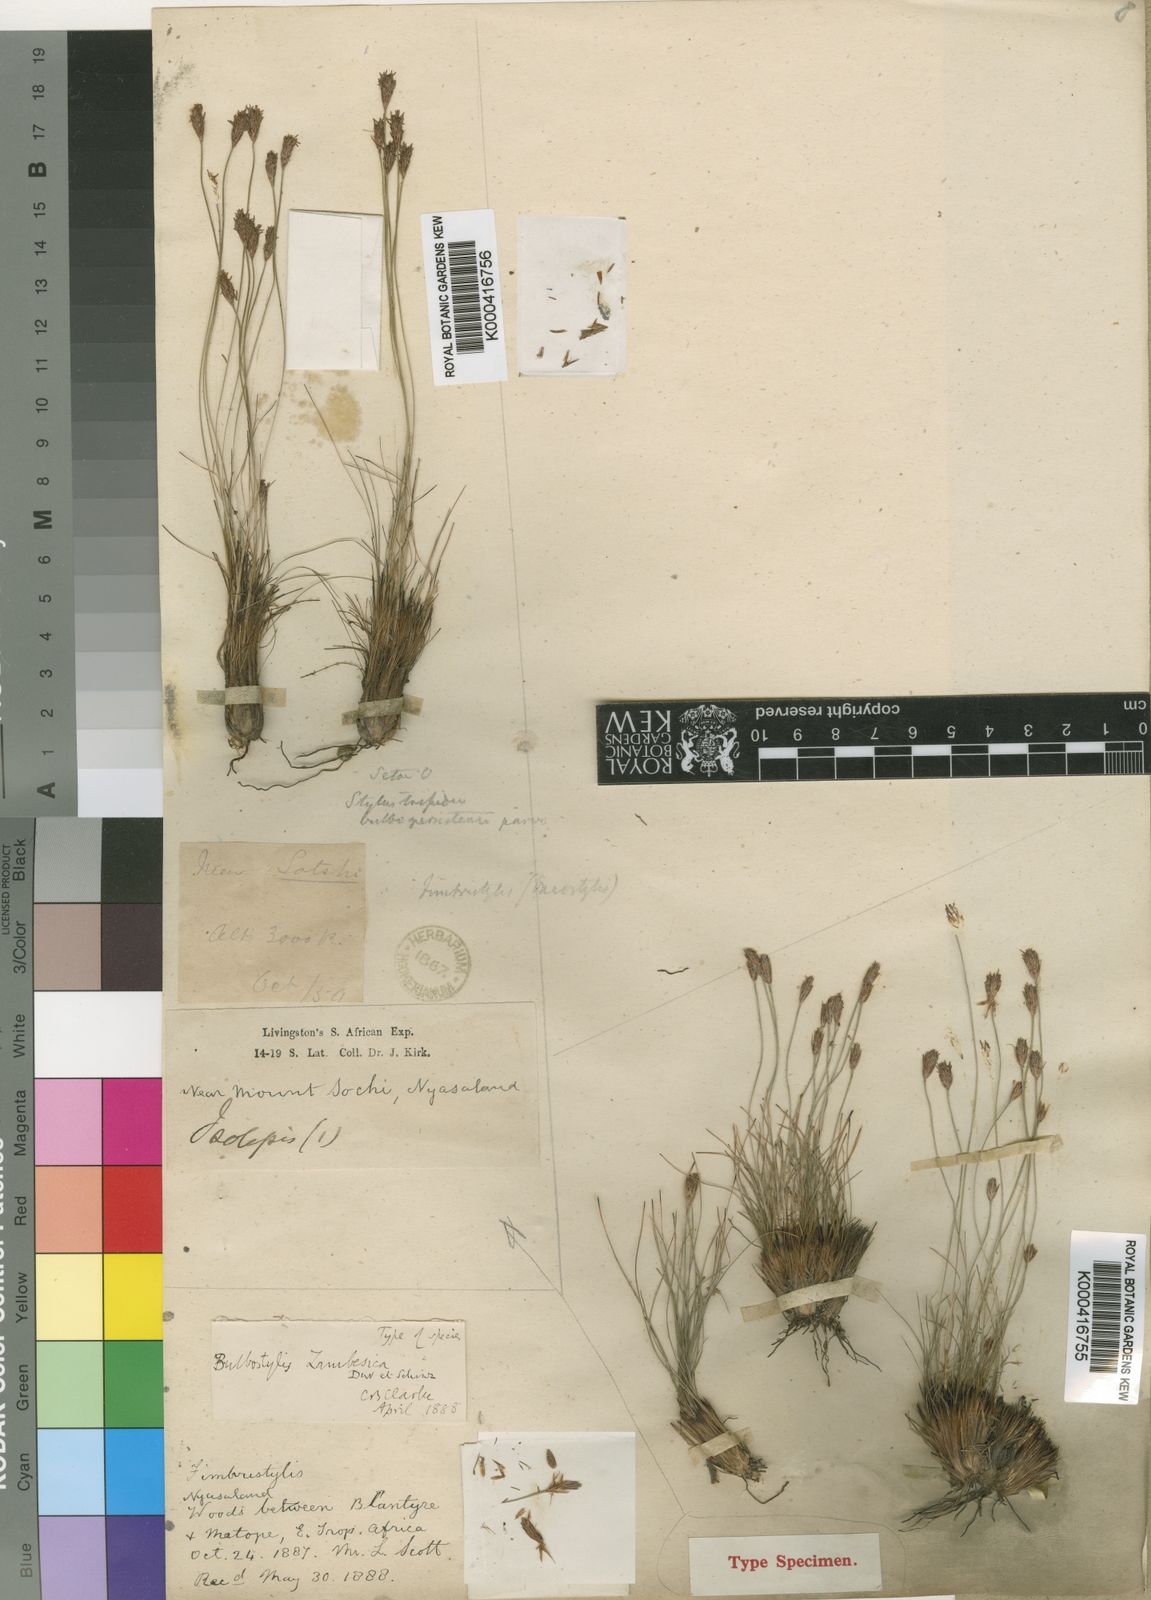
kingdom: Plantae
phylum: Tracheophyta
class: Liliopsida
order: Poales
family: Cyperaceae
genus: Bulbostylis
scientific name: Bulbostylis macra
